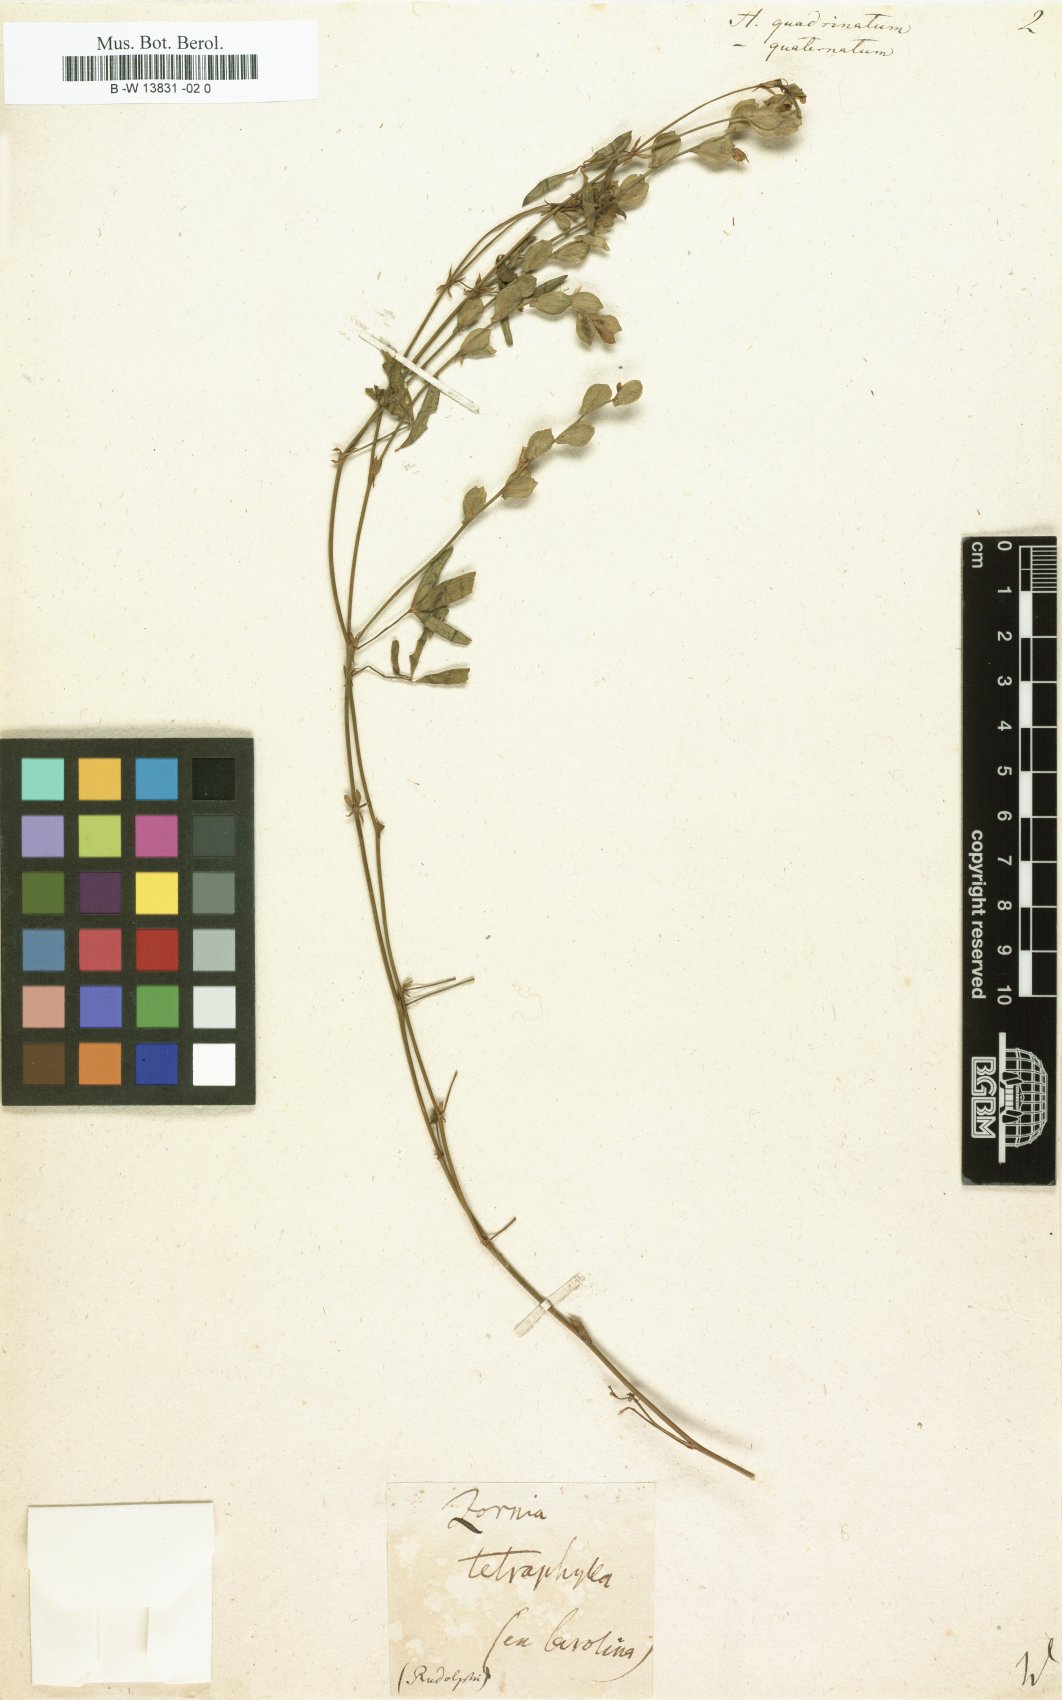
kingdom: Plantae
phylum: Tracheophyta
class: Magnoliopsida
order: Fabales
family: Fabaceae
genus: Hedysarum
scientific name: Hedysarum
